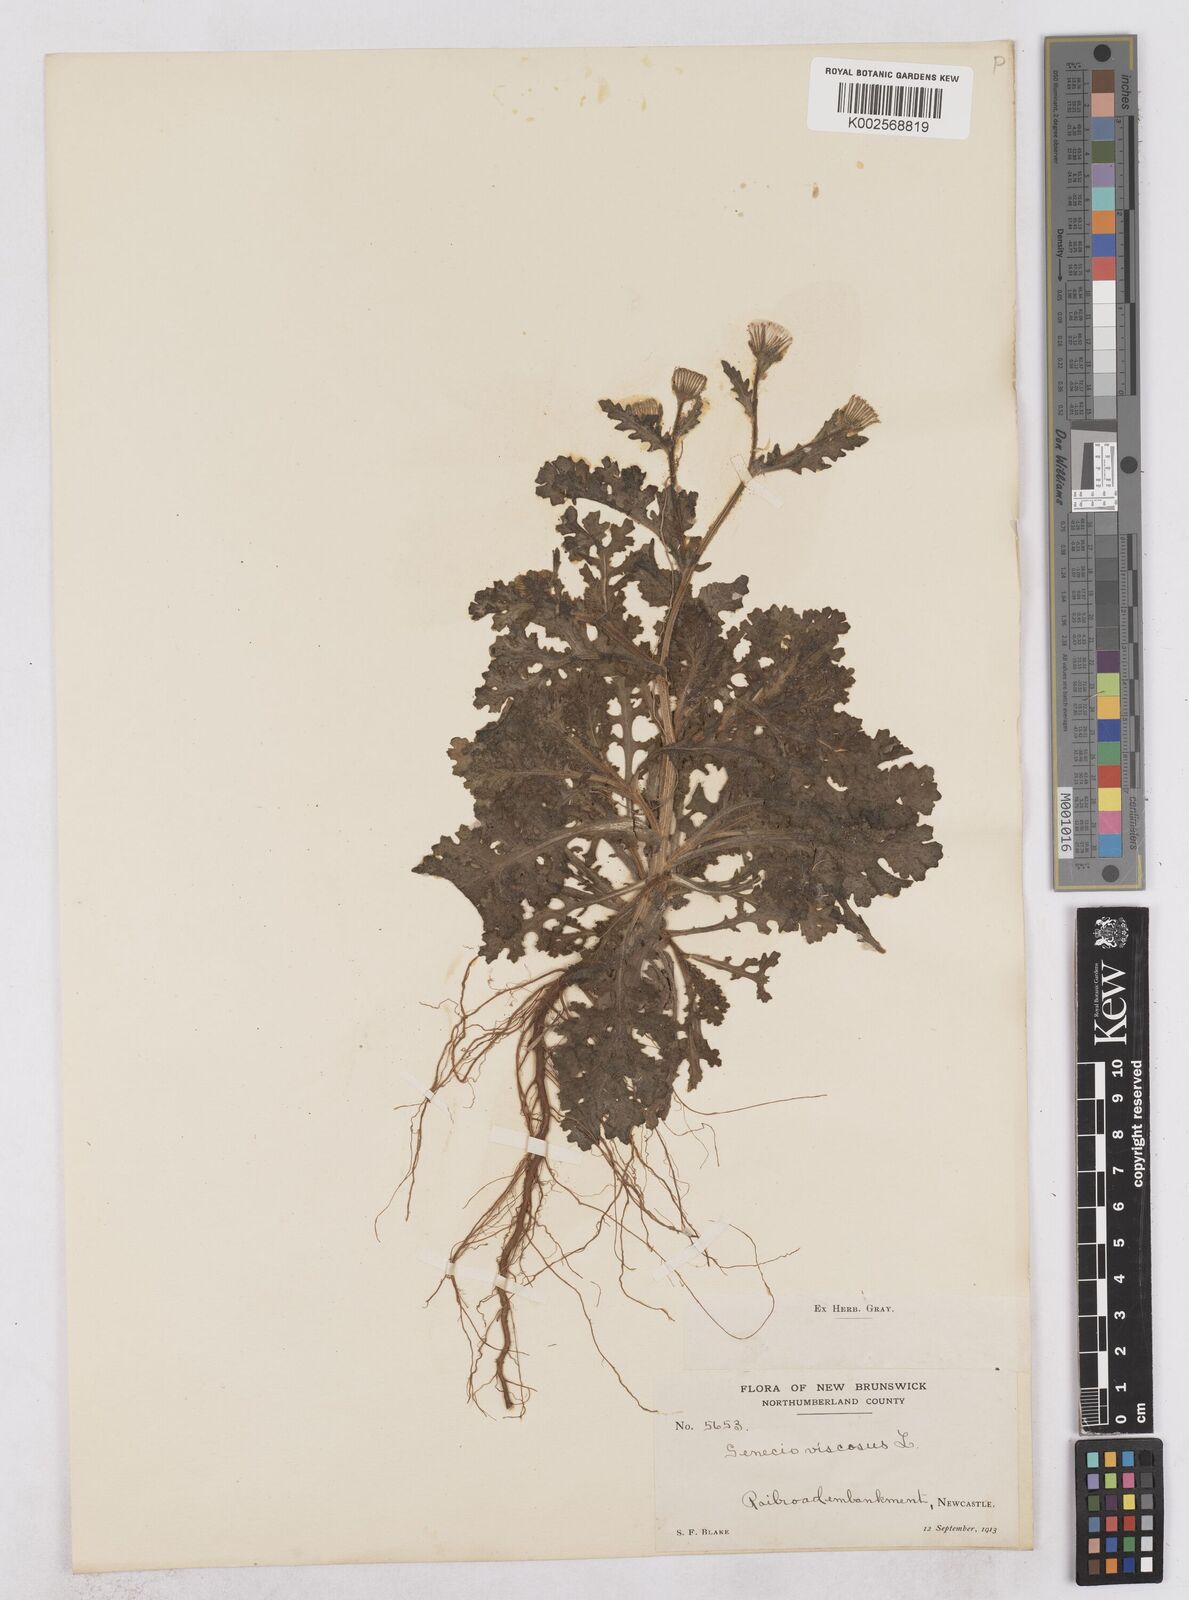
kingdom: Plantae
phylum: Tracheophyta
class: Magnoliopsida
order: Asterales
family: Asteraceae
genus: Senecio
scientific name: Senecio viscosus
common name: Sticky groundsel
